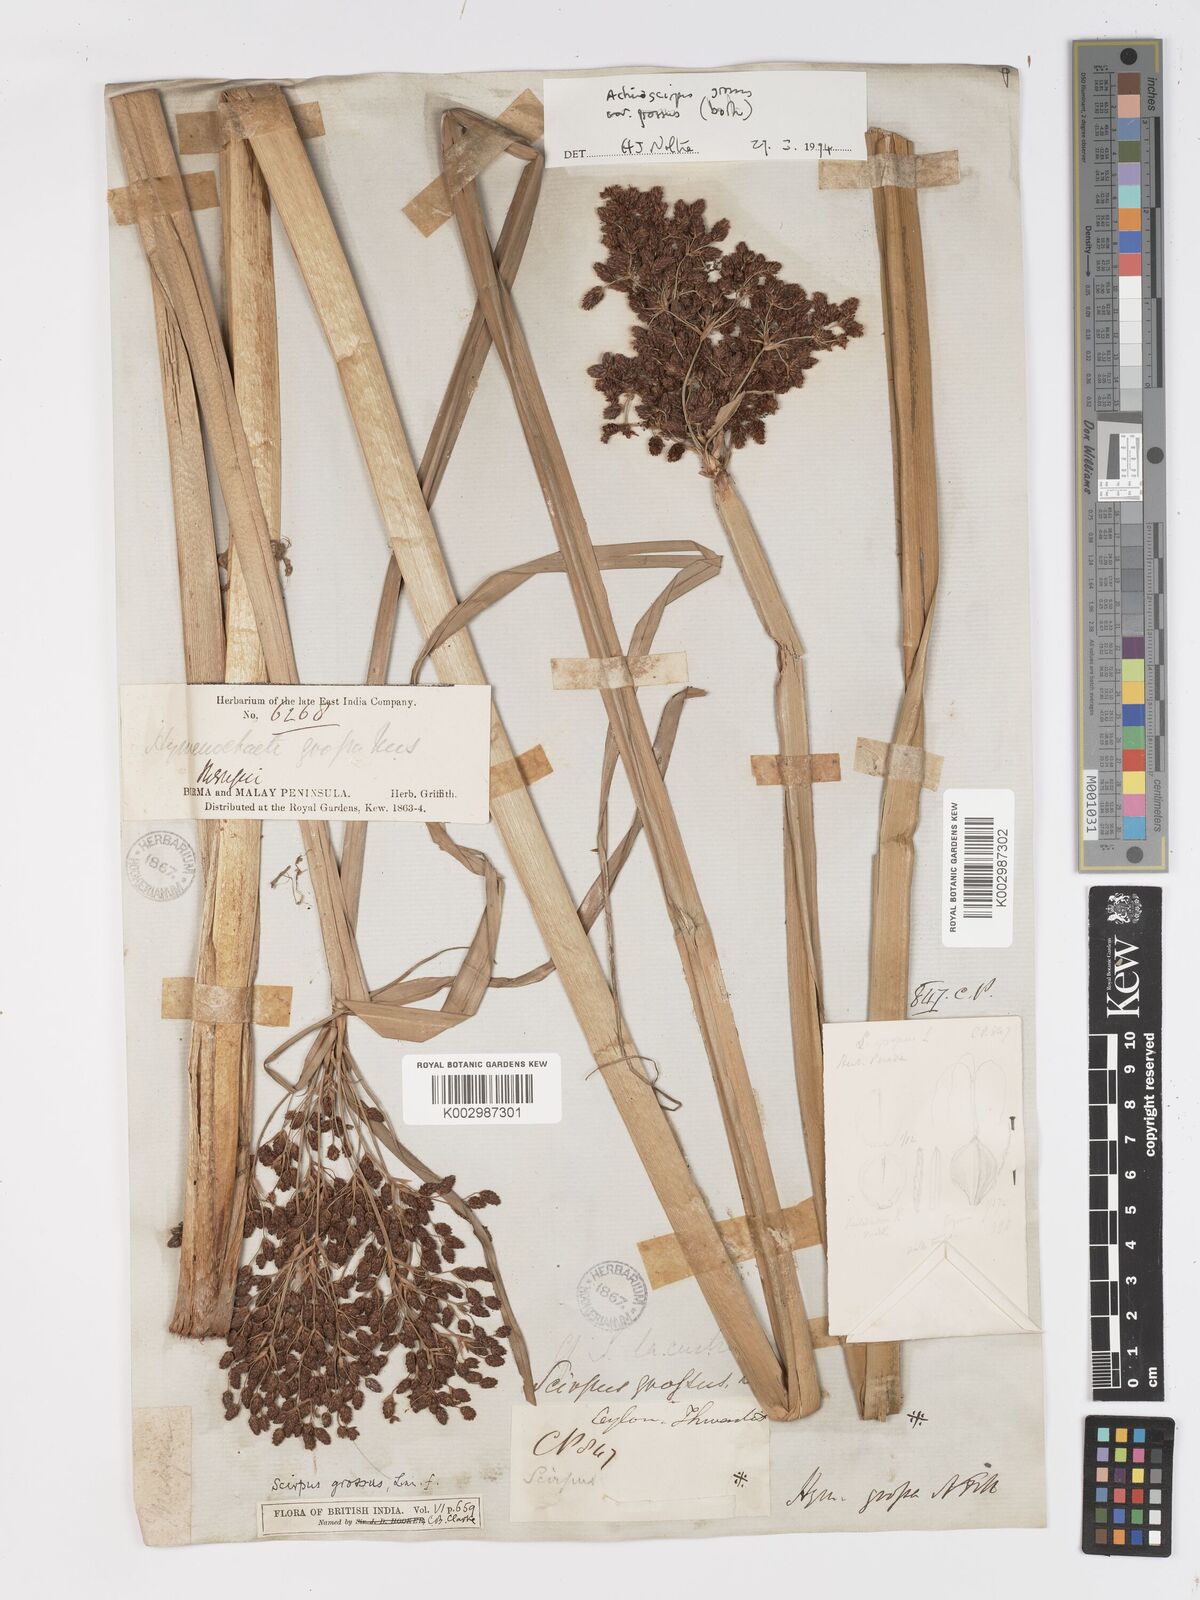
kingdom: Plantae
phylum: Tracheophyta
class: Liliopsida
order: Poales
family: Cyperaceae
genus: Actinoscirpus
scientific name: Actinoscirpus grossus
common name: Giant bur rush
